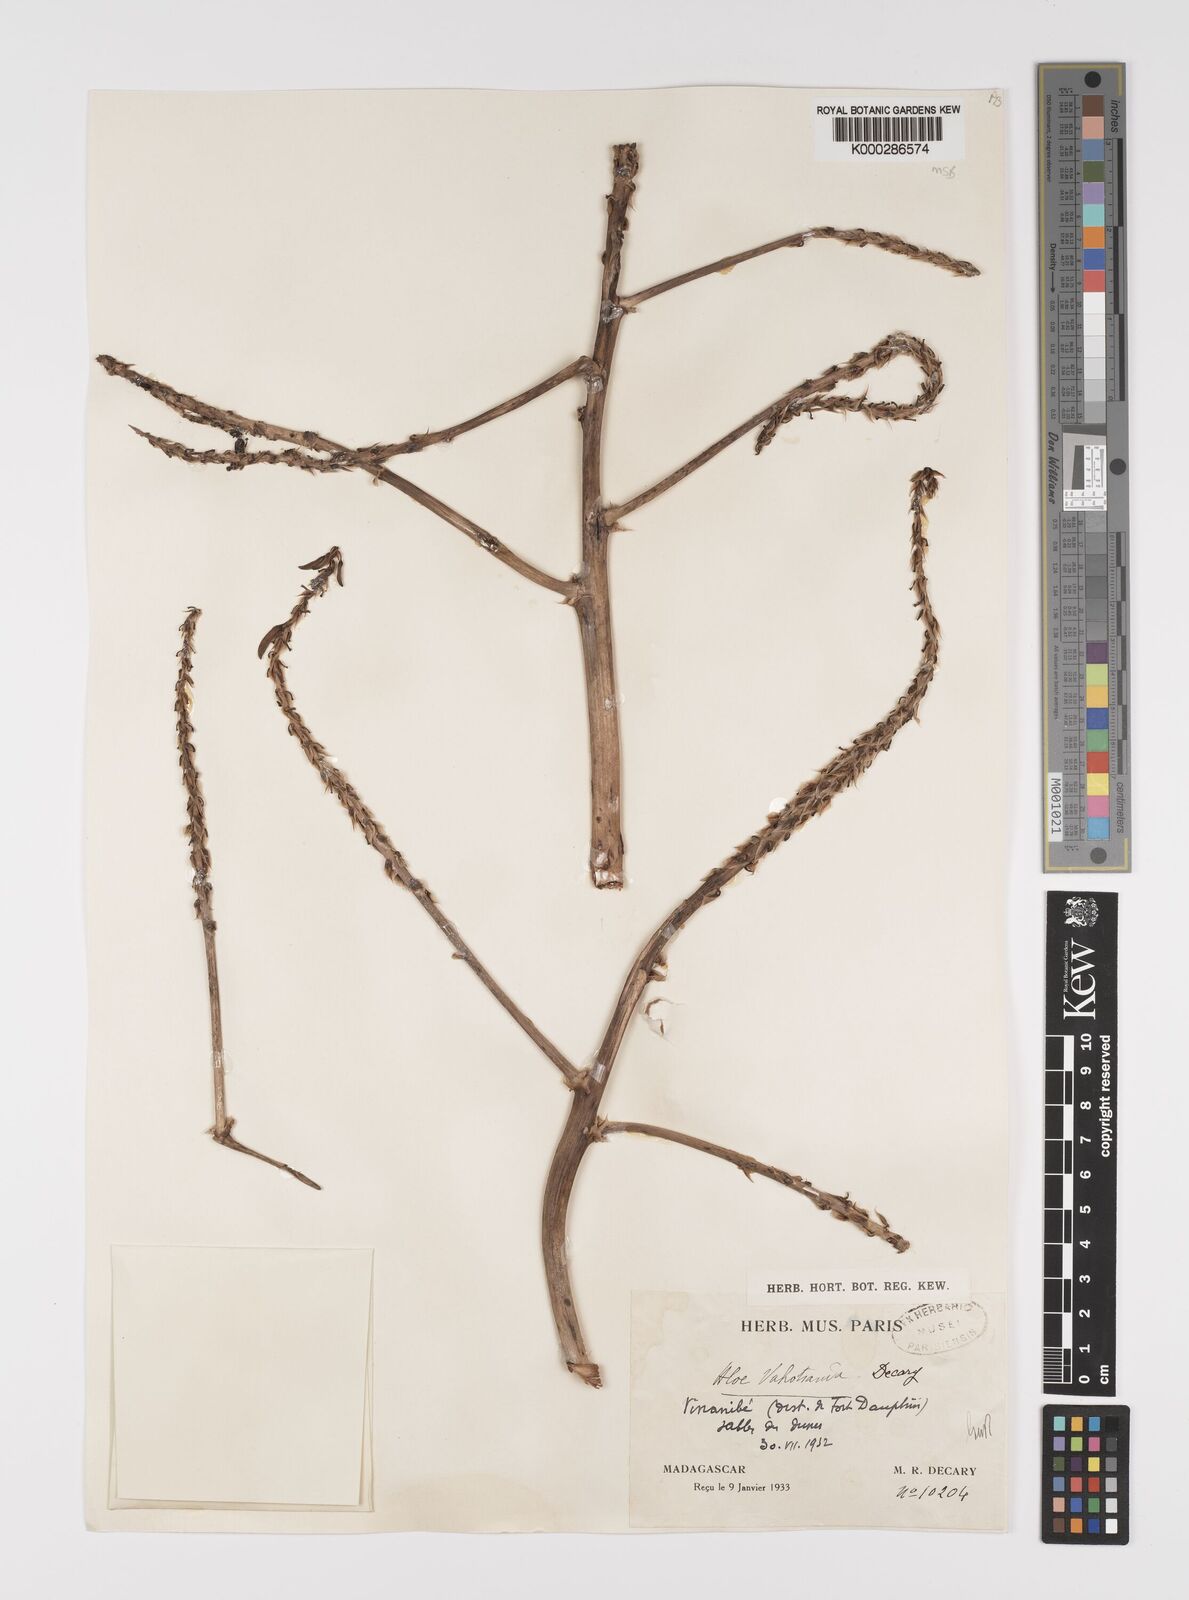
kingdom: Plantae
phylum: Tracheophyta
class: Liliopsida
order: Asparagales
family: Asphodelaceae
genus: Aloe
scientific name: Aloe vaotsanda
